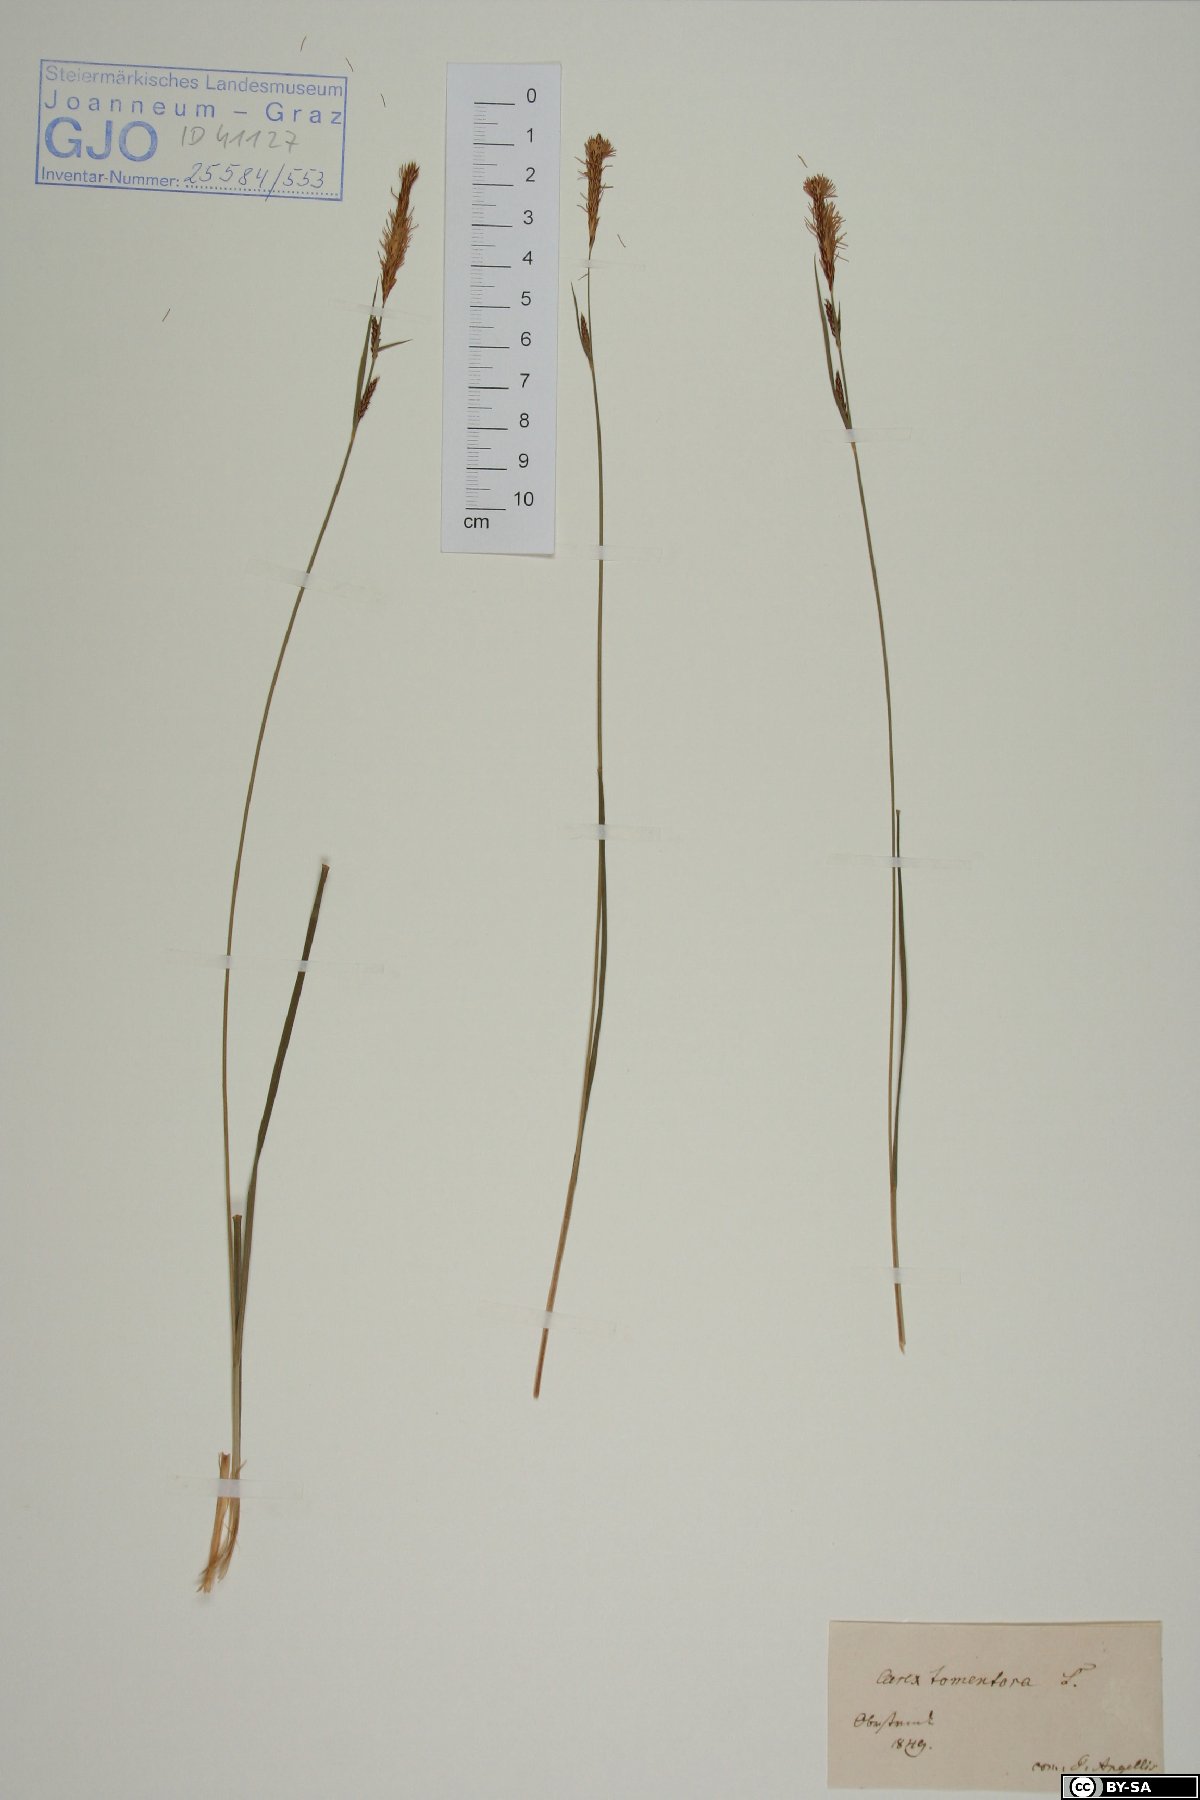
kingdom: Plantae
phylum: Tracheophyta
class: Liliopsida
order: Poales
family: Cyperaceae
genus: Carex
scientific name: Carex tomentosa
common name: Downy-fruited sedge
